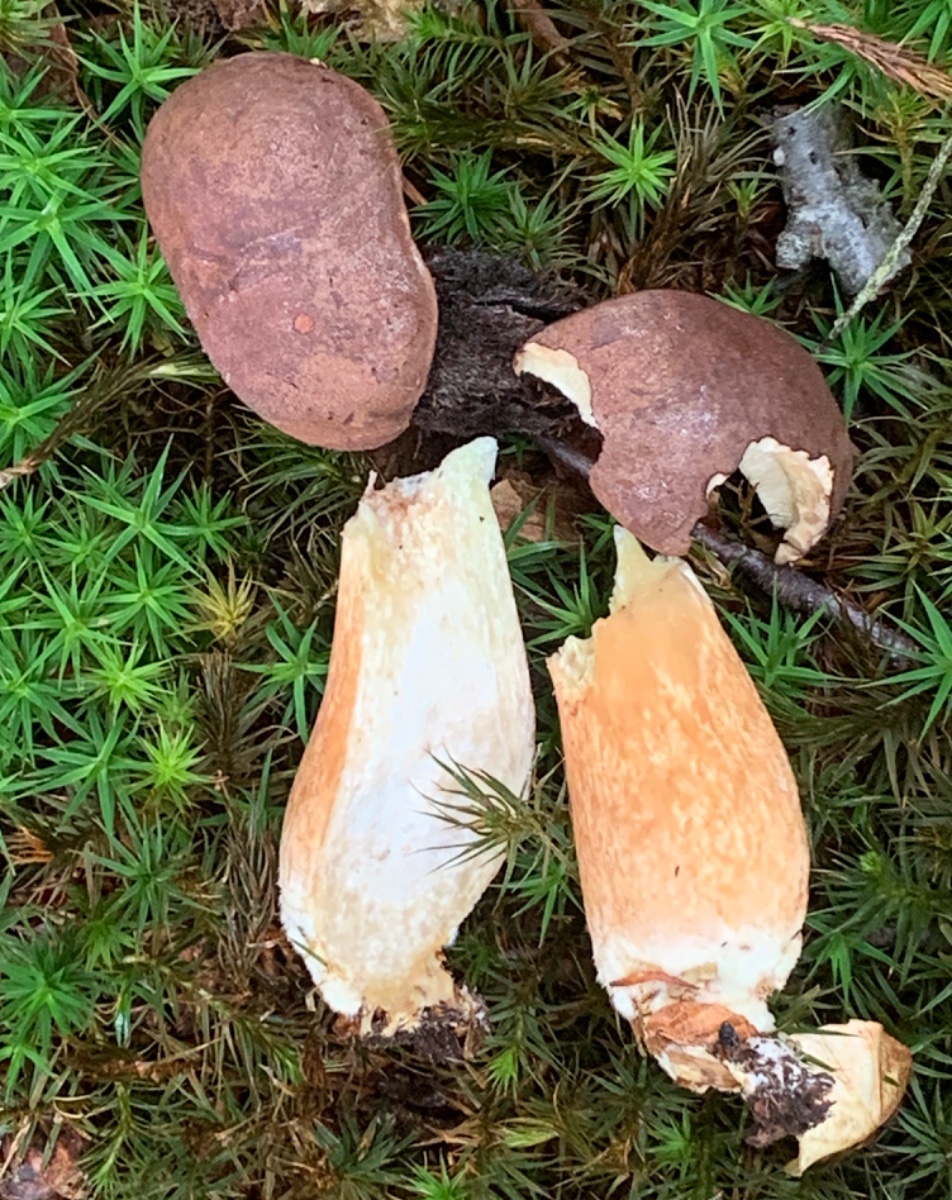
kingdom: Fungi
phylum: Basidiomycota
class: Agaricomycetes
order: Boletales
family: Boletaceae
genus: Imleria
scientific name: Imleria badia
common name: brunstokket rørhat
